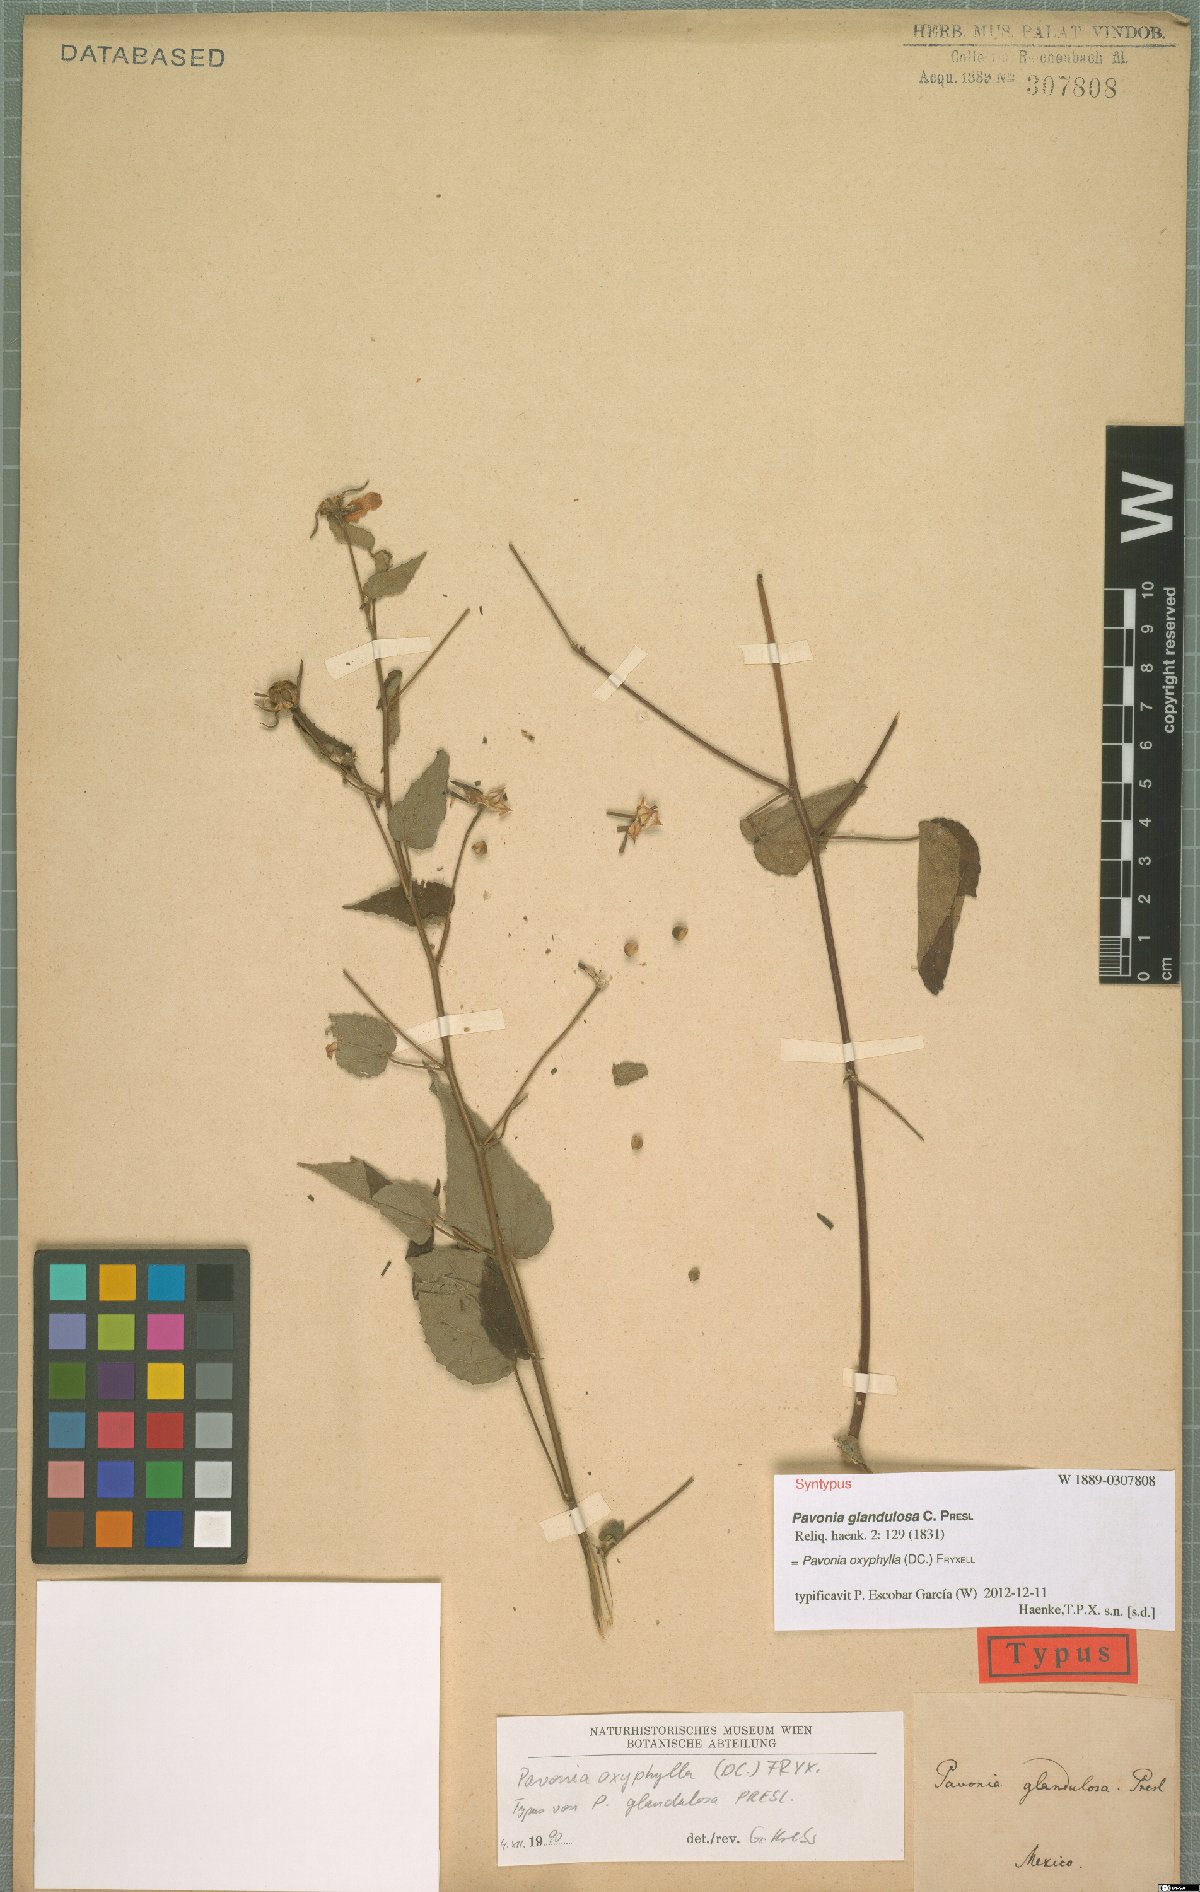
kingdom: Plantae
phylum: Tracheophyta
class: Magnoliopsida
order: Malvales
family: Malvaceae
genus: Pavonia
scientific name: Pavonia oxyphylla
